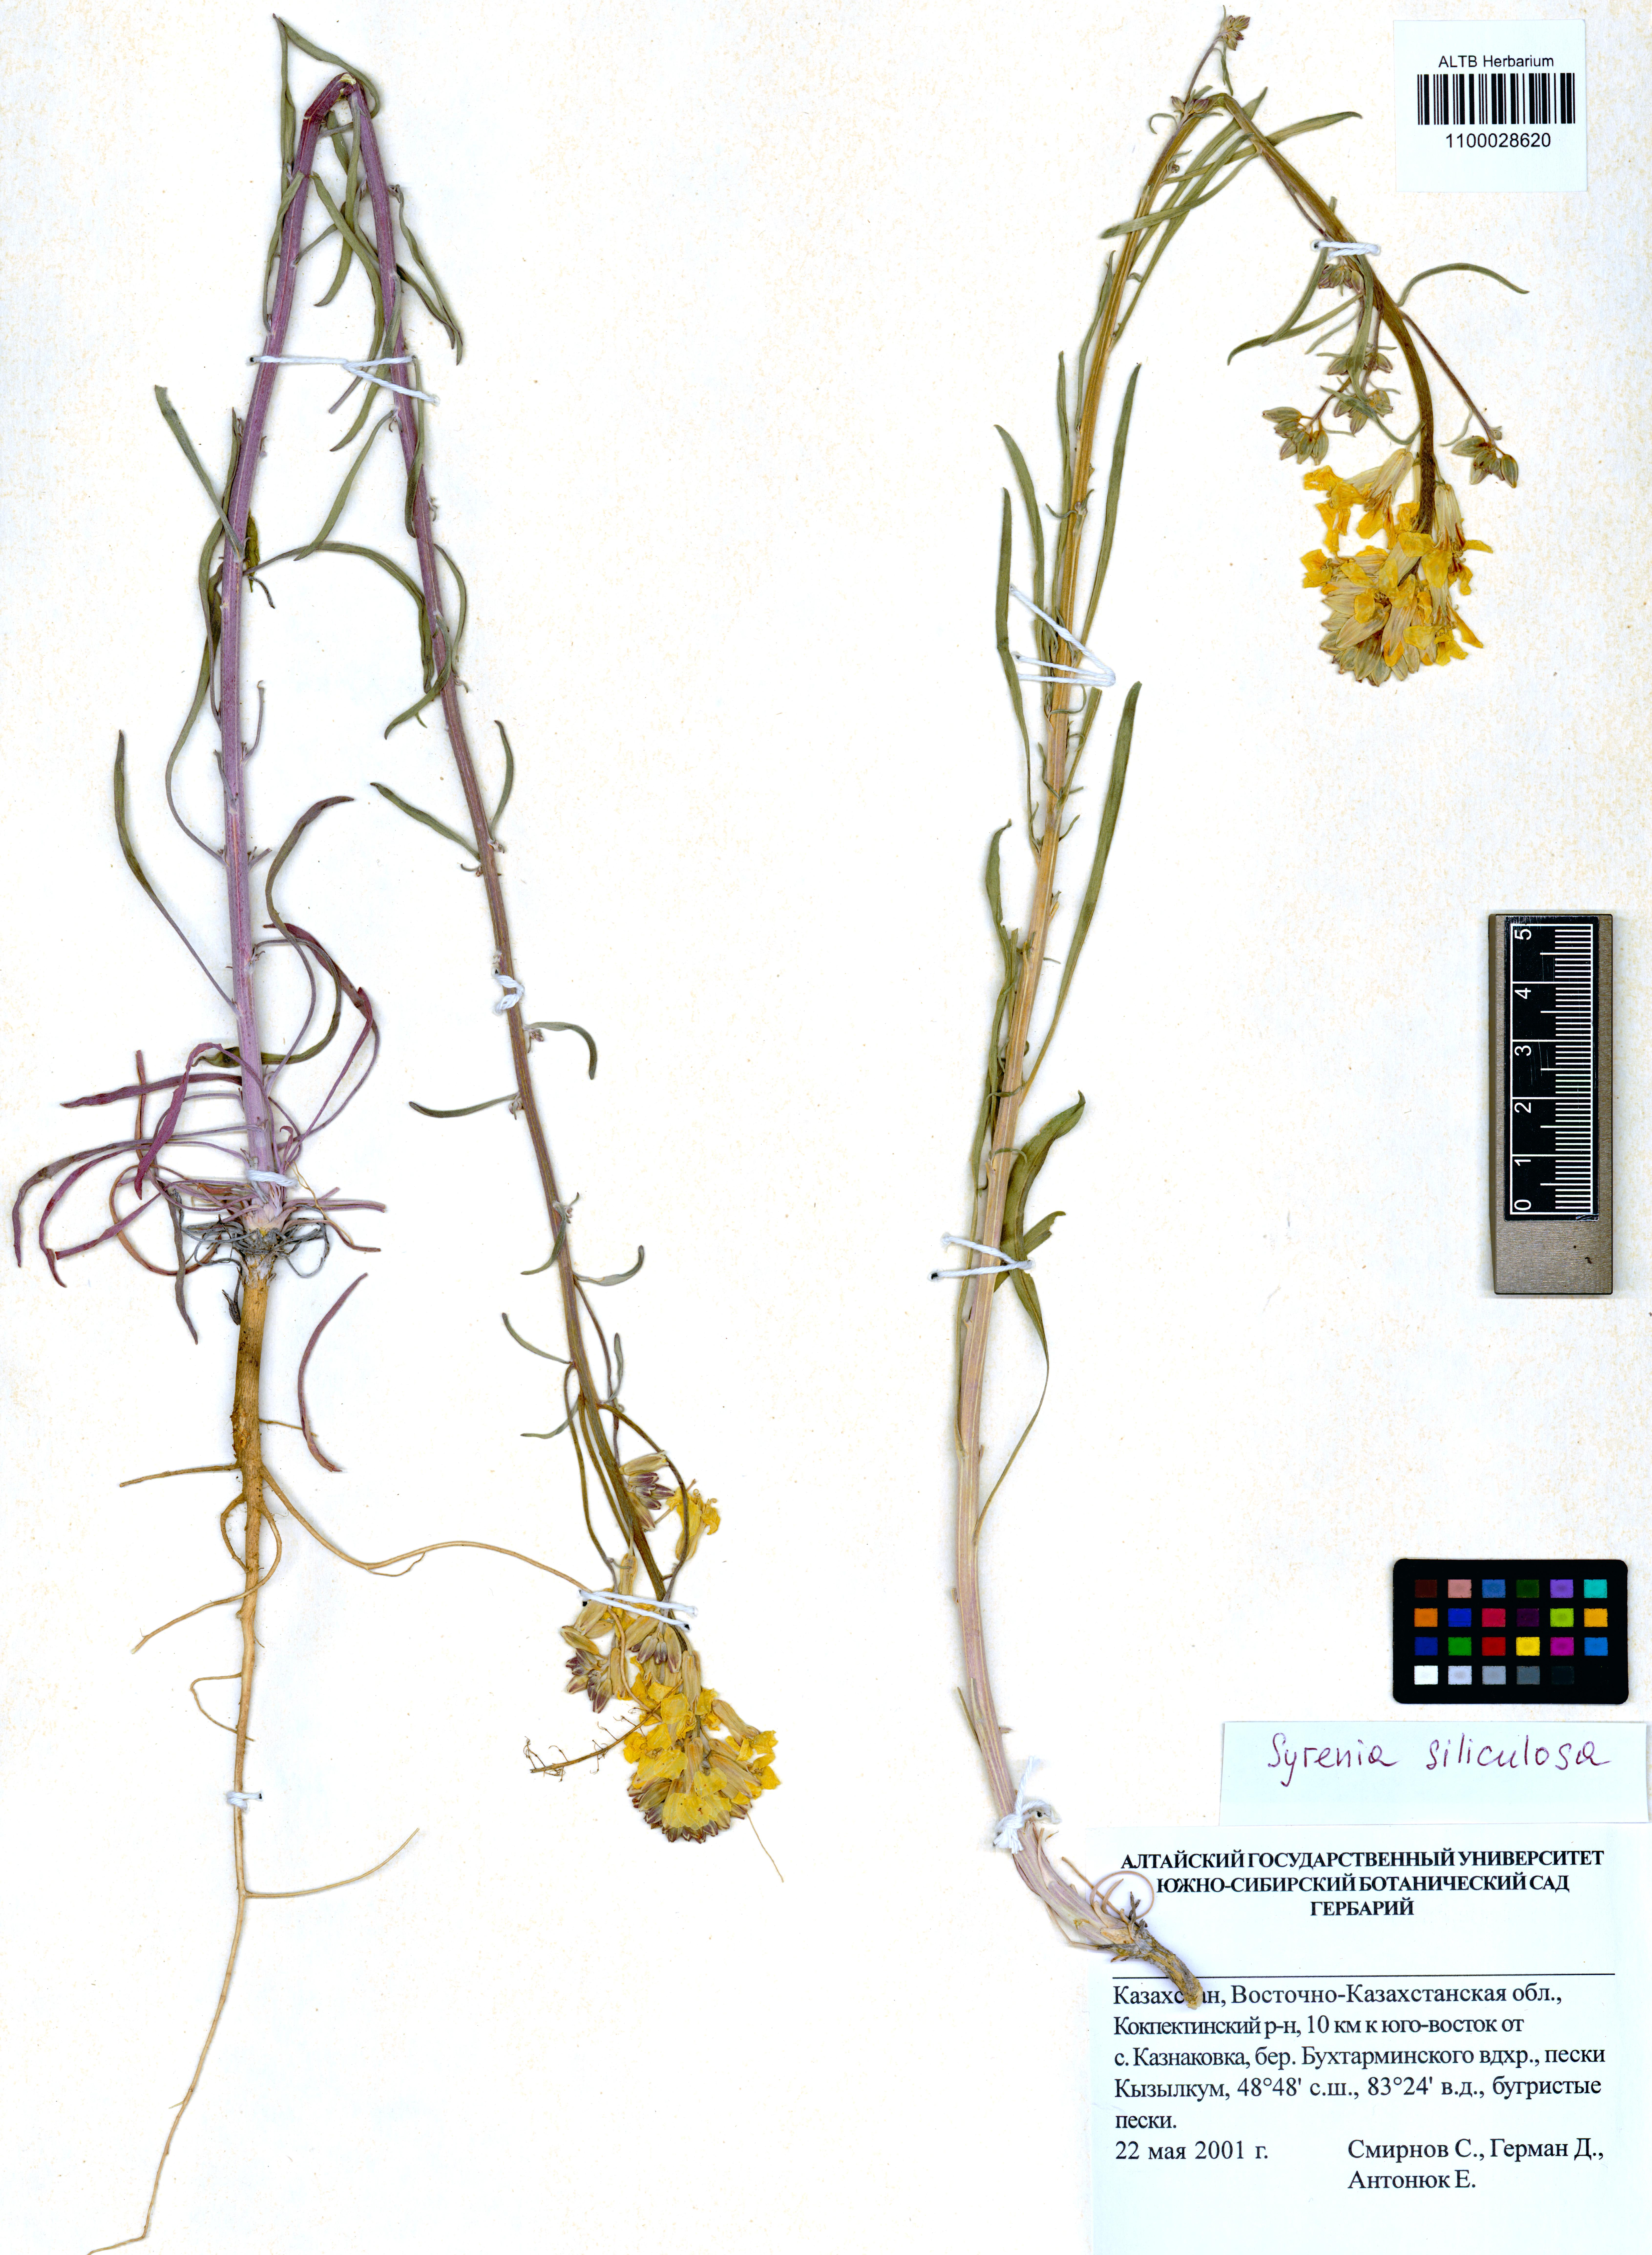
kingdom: Plantae
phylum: Tracheophyta
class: Magnoliopsida
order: Brassicales
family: Brassicaceae
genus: Syrenia
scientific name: Syrenia siliculosa
